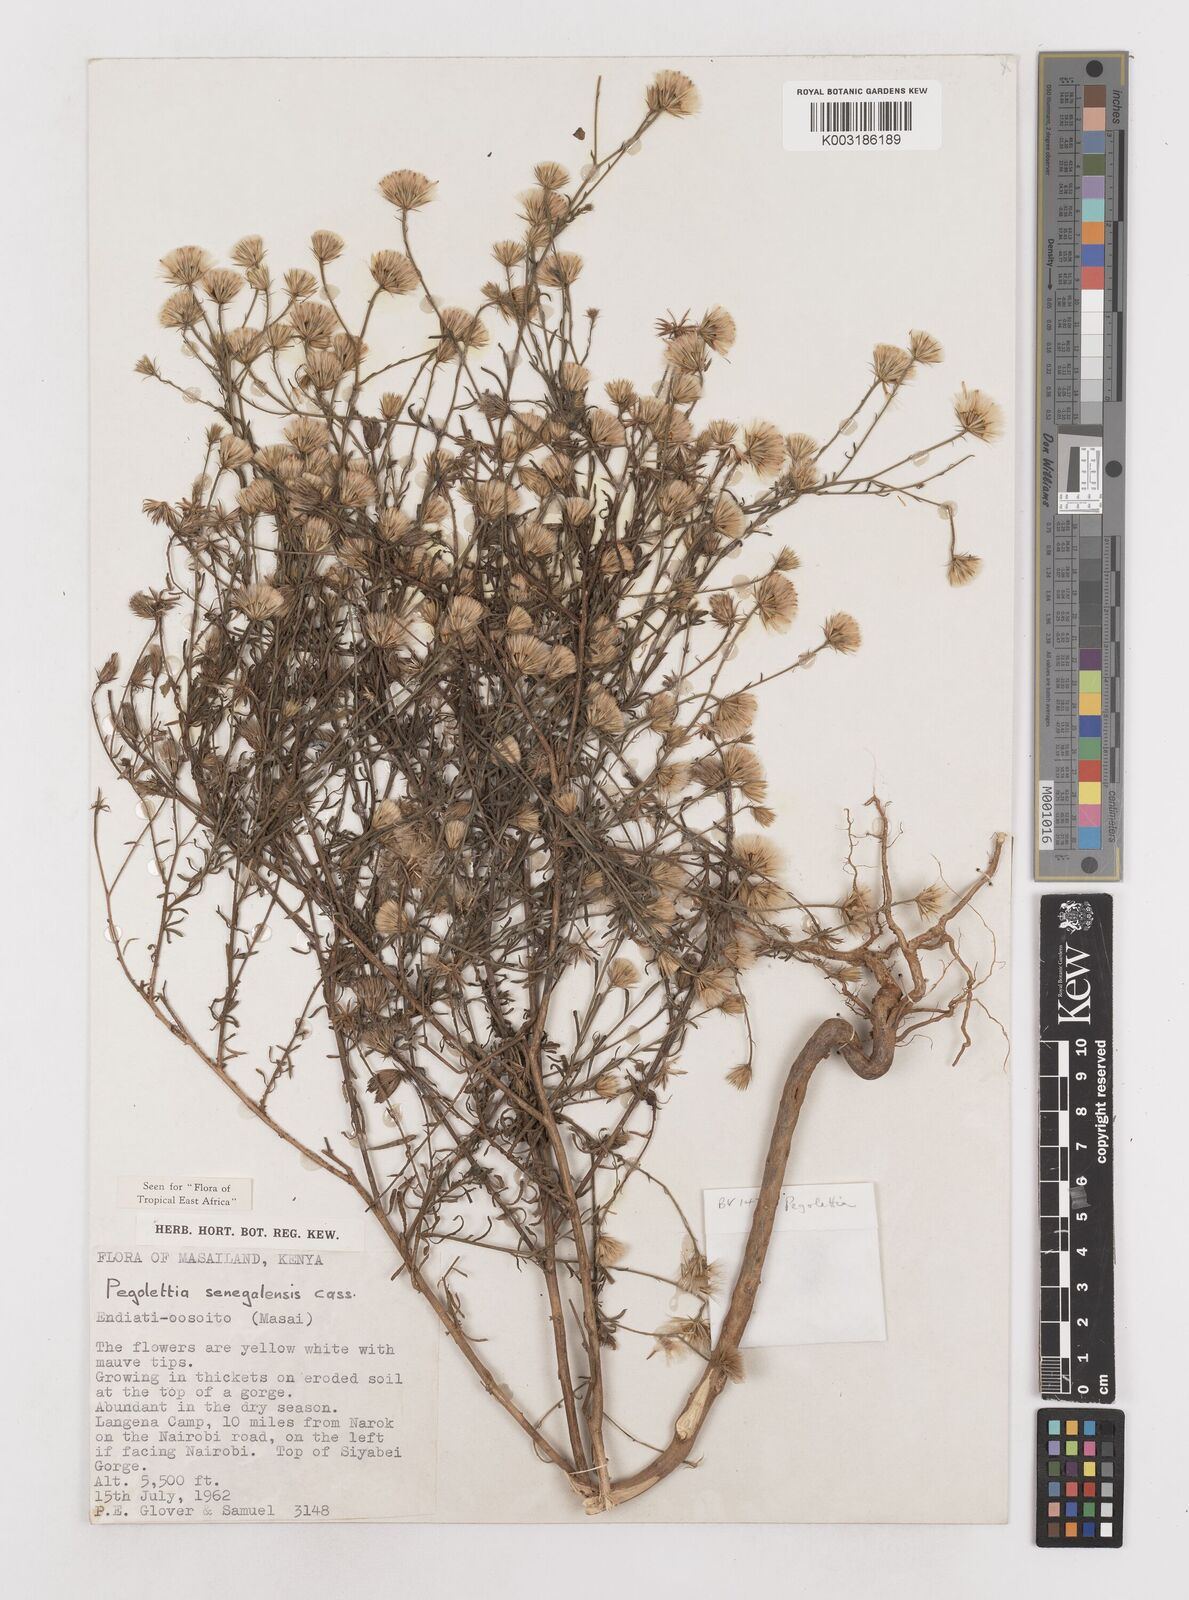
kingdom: Plantae
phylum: Tracheophyta
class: Magnoliopsida
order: Asterales
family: Asteraceae
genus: Pegolettia
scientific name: Pegolettia senegalensis
